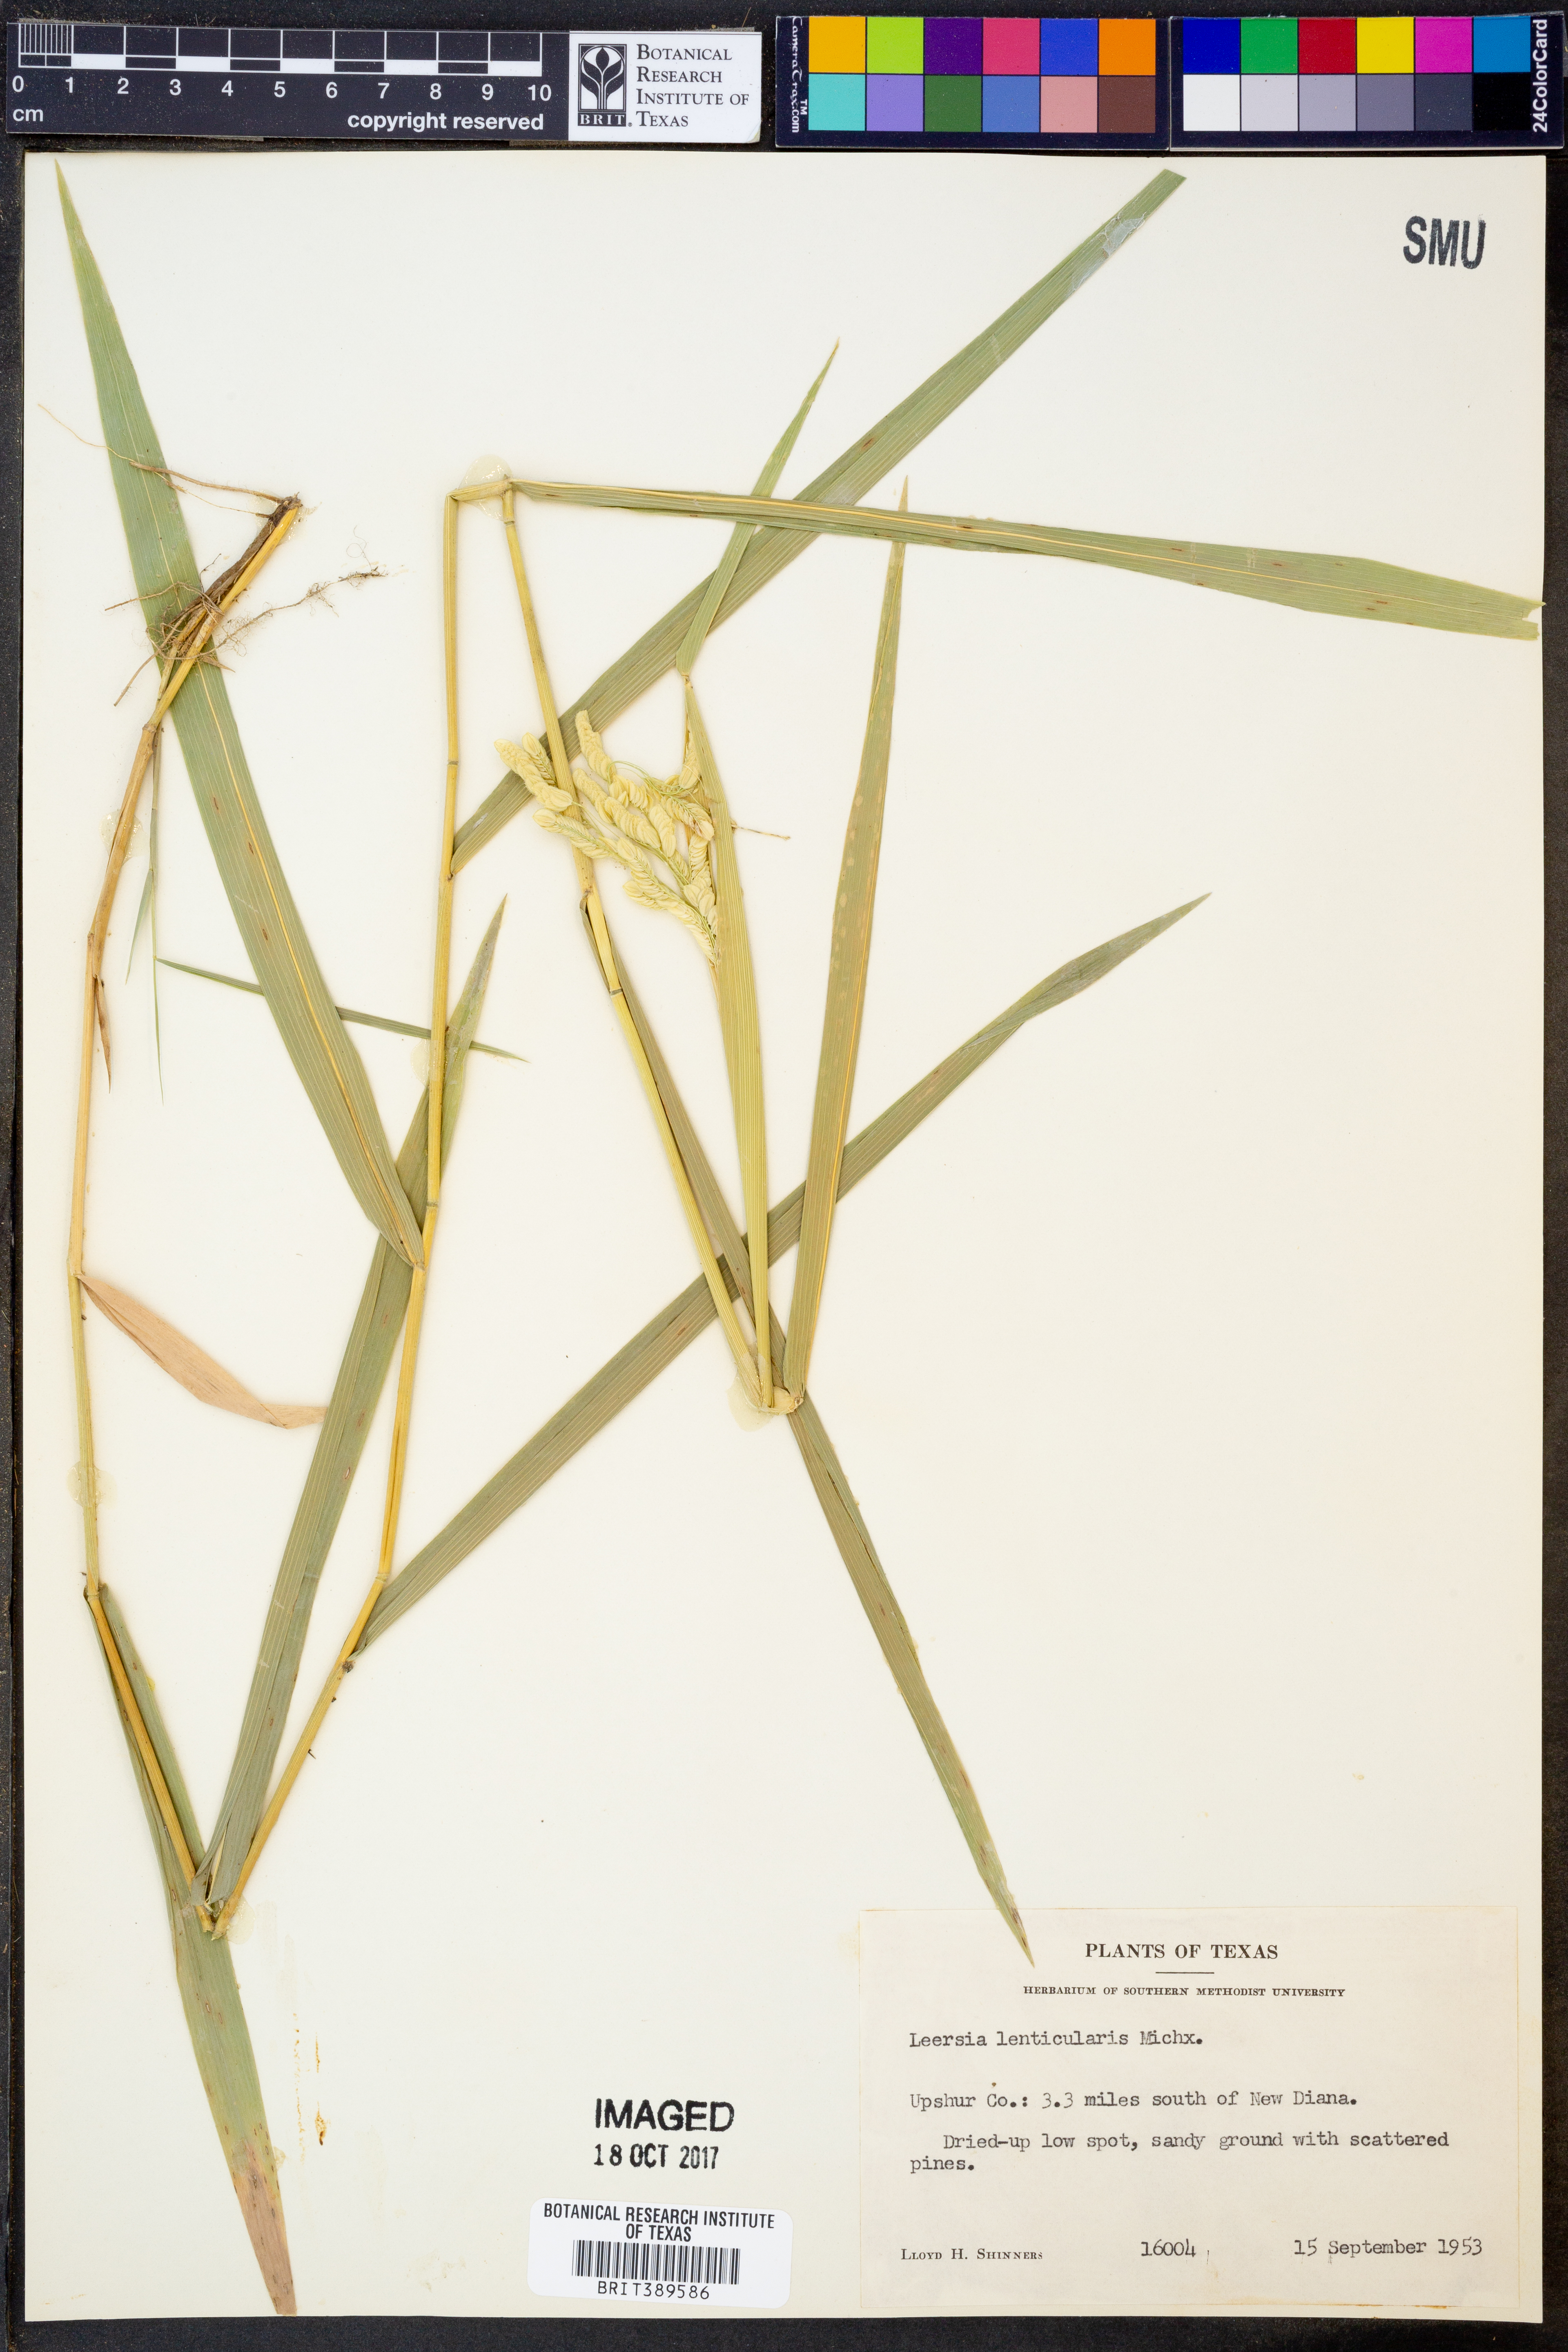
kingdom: Plantae
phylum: Tracheophyta
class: Liliopsida
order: Poales
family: Poaceae
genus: Leersia
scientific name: Leersia lenticularis
